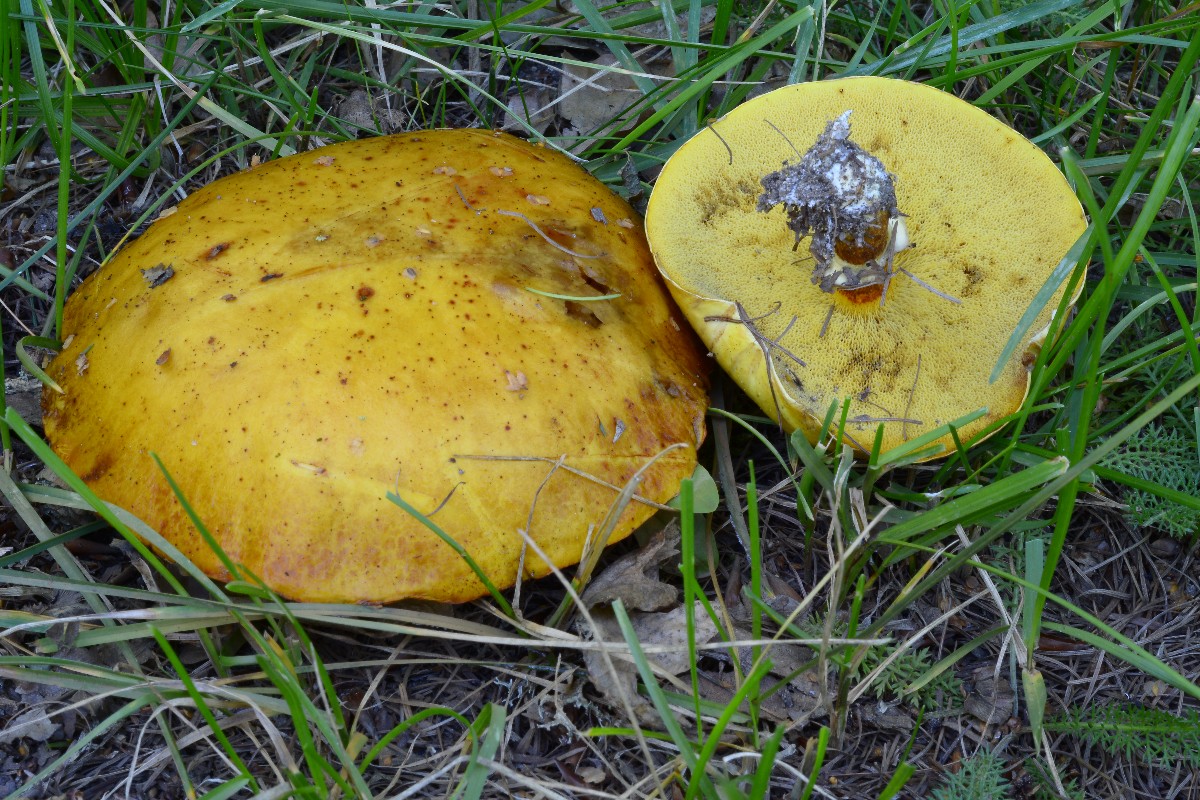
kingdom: Fungi
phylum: Basidiomycota
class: Agaricomycetes
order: Boletales
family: Suillaceae
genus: Suillus
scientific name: Suillus grevillei
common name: lærke-slimrørhat
